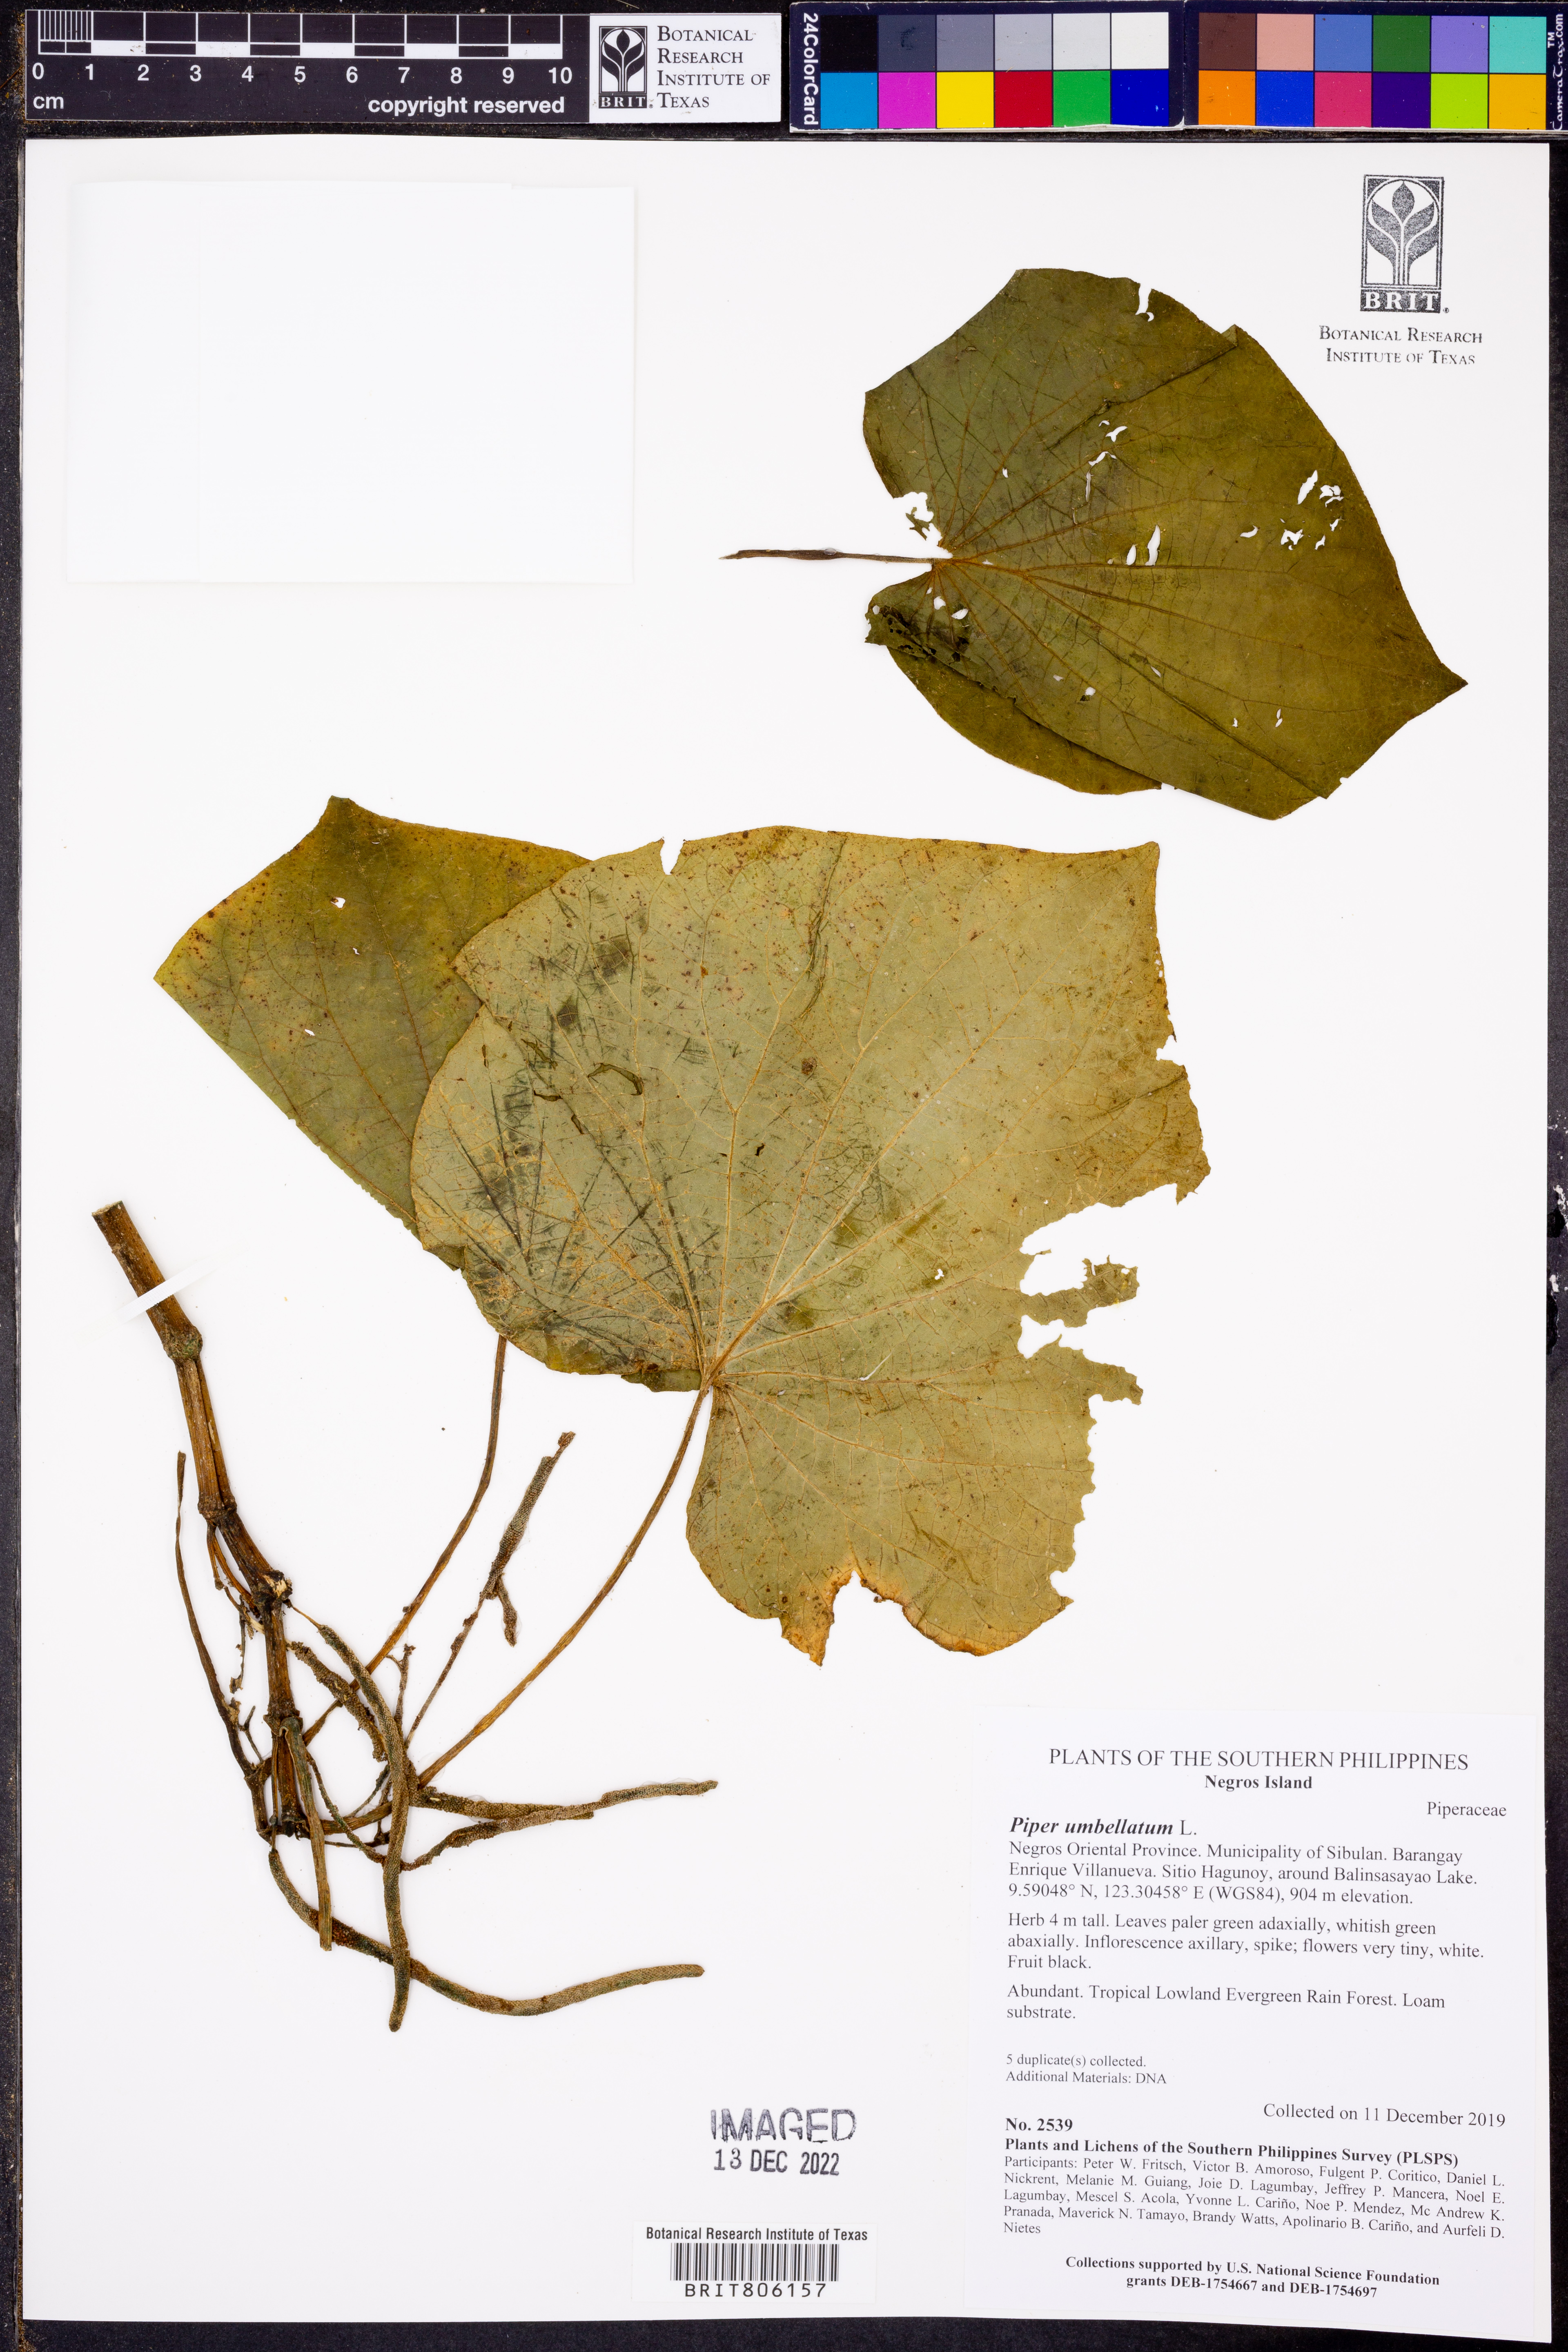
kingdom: Plantae
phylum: Tracheophyta
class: Magnoliopsida
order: Piperales
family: Piperaceae
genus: Piper
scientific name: Piper umbellatum
